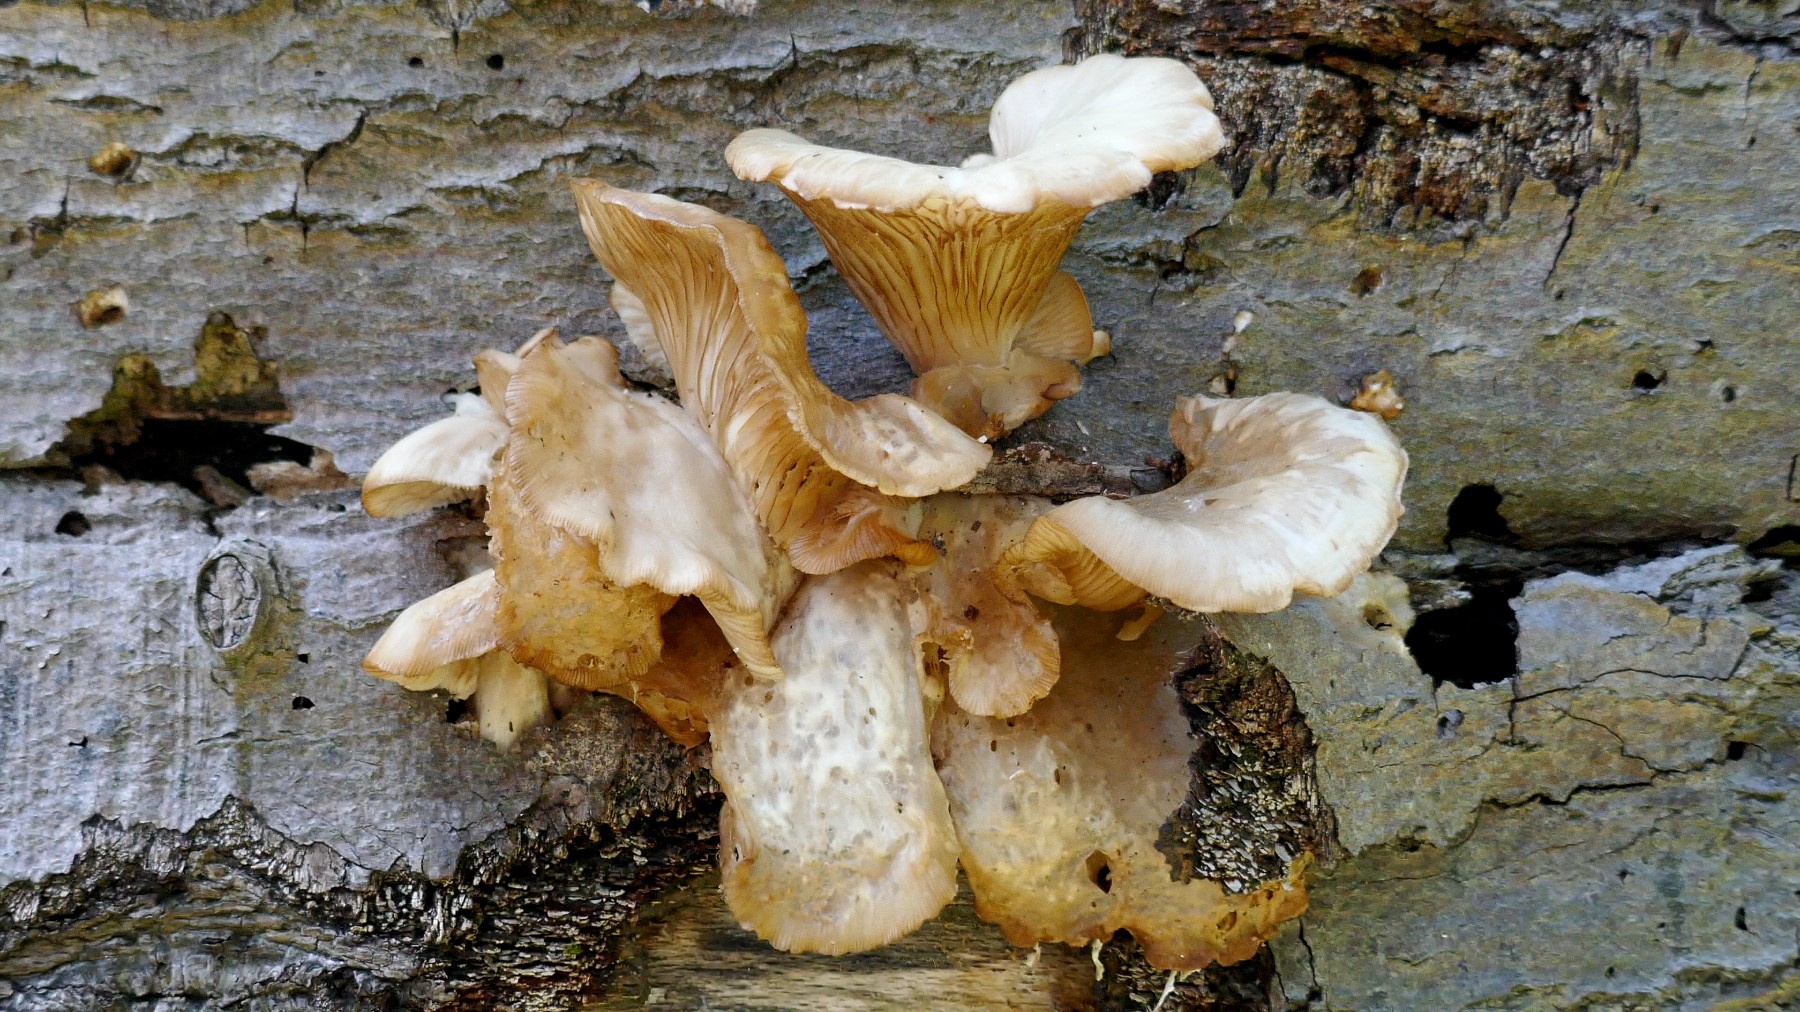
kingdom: Fungi
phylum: Basidiomycota
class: Agaricomycetes
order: Agaricales
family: Pleurotaceae
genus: Pleurotus
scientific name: Pleurotus pulmonarius
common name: sommer-østershat
